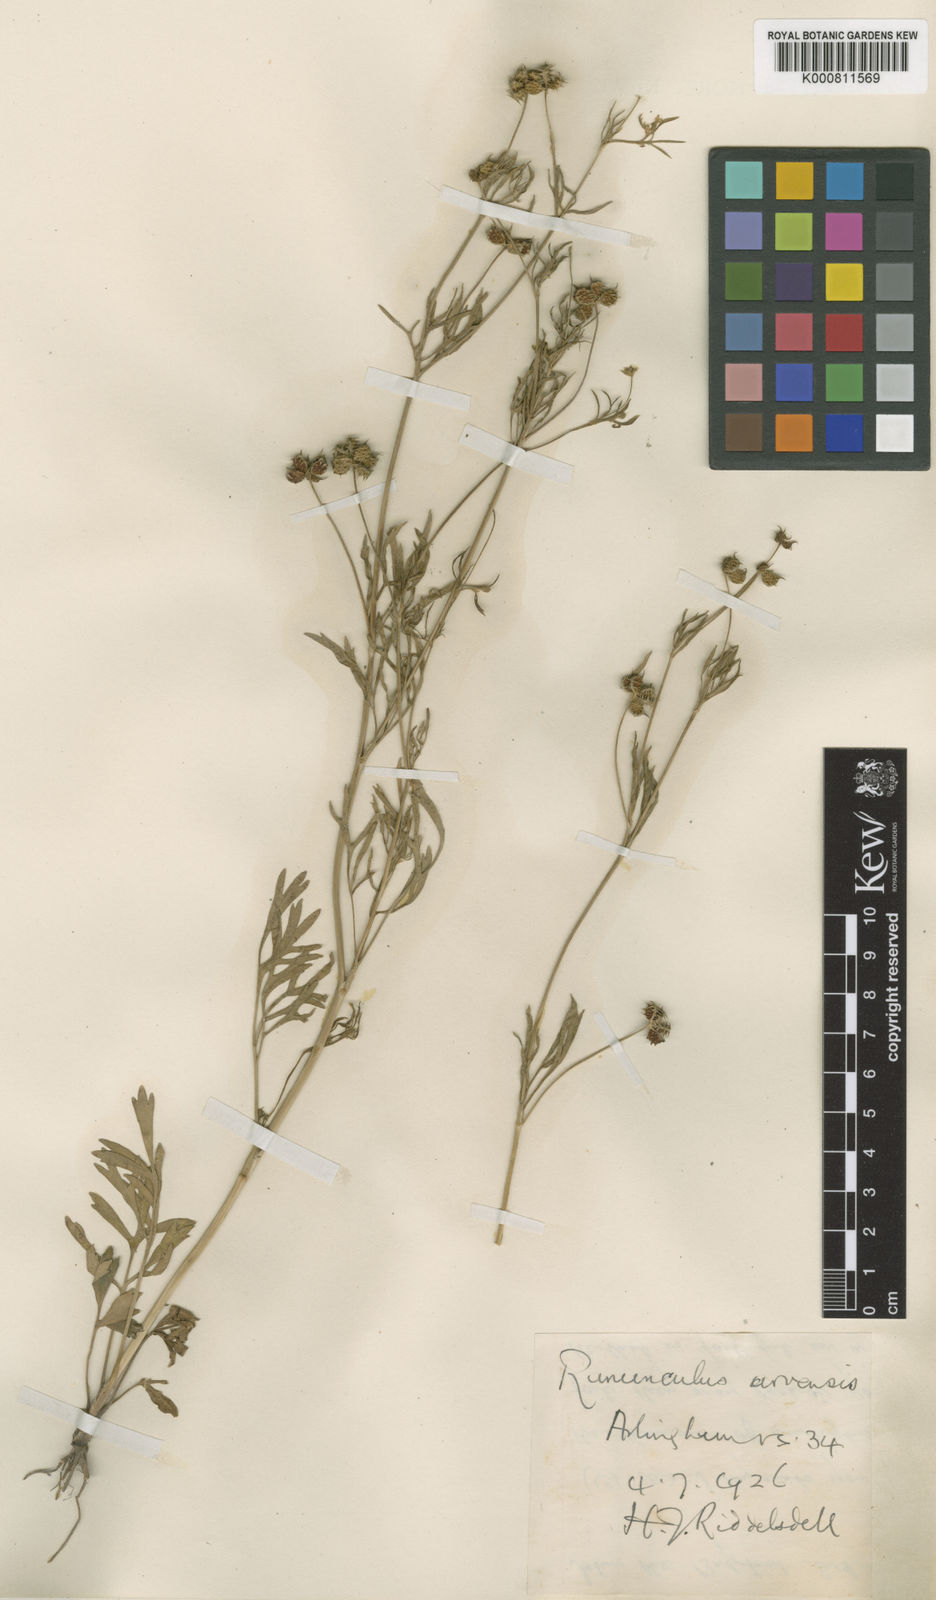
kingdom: Plantae
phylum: Tracheophyta
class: Magnoliopsida
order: Ranunculales
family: Ranunculaceae
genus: Ranunculus
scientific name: Ranunculus arvensis
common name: Corn buttercup
